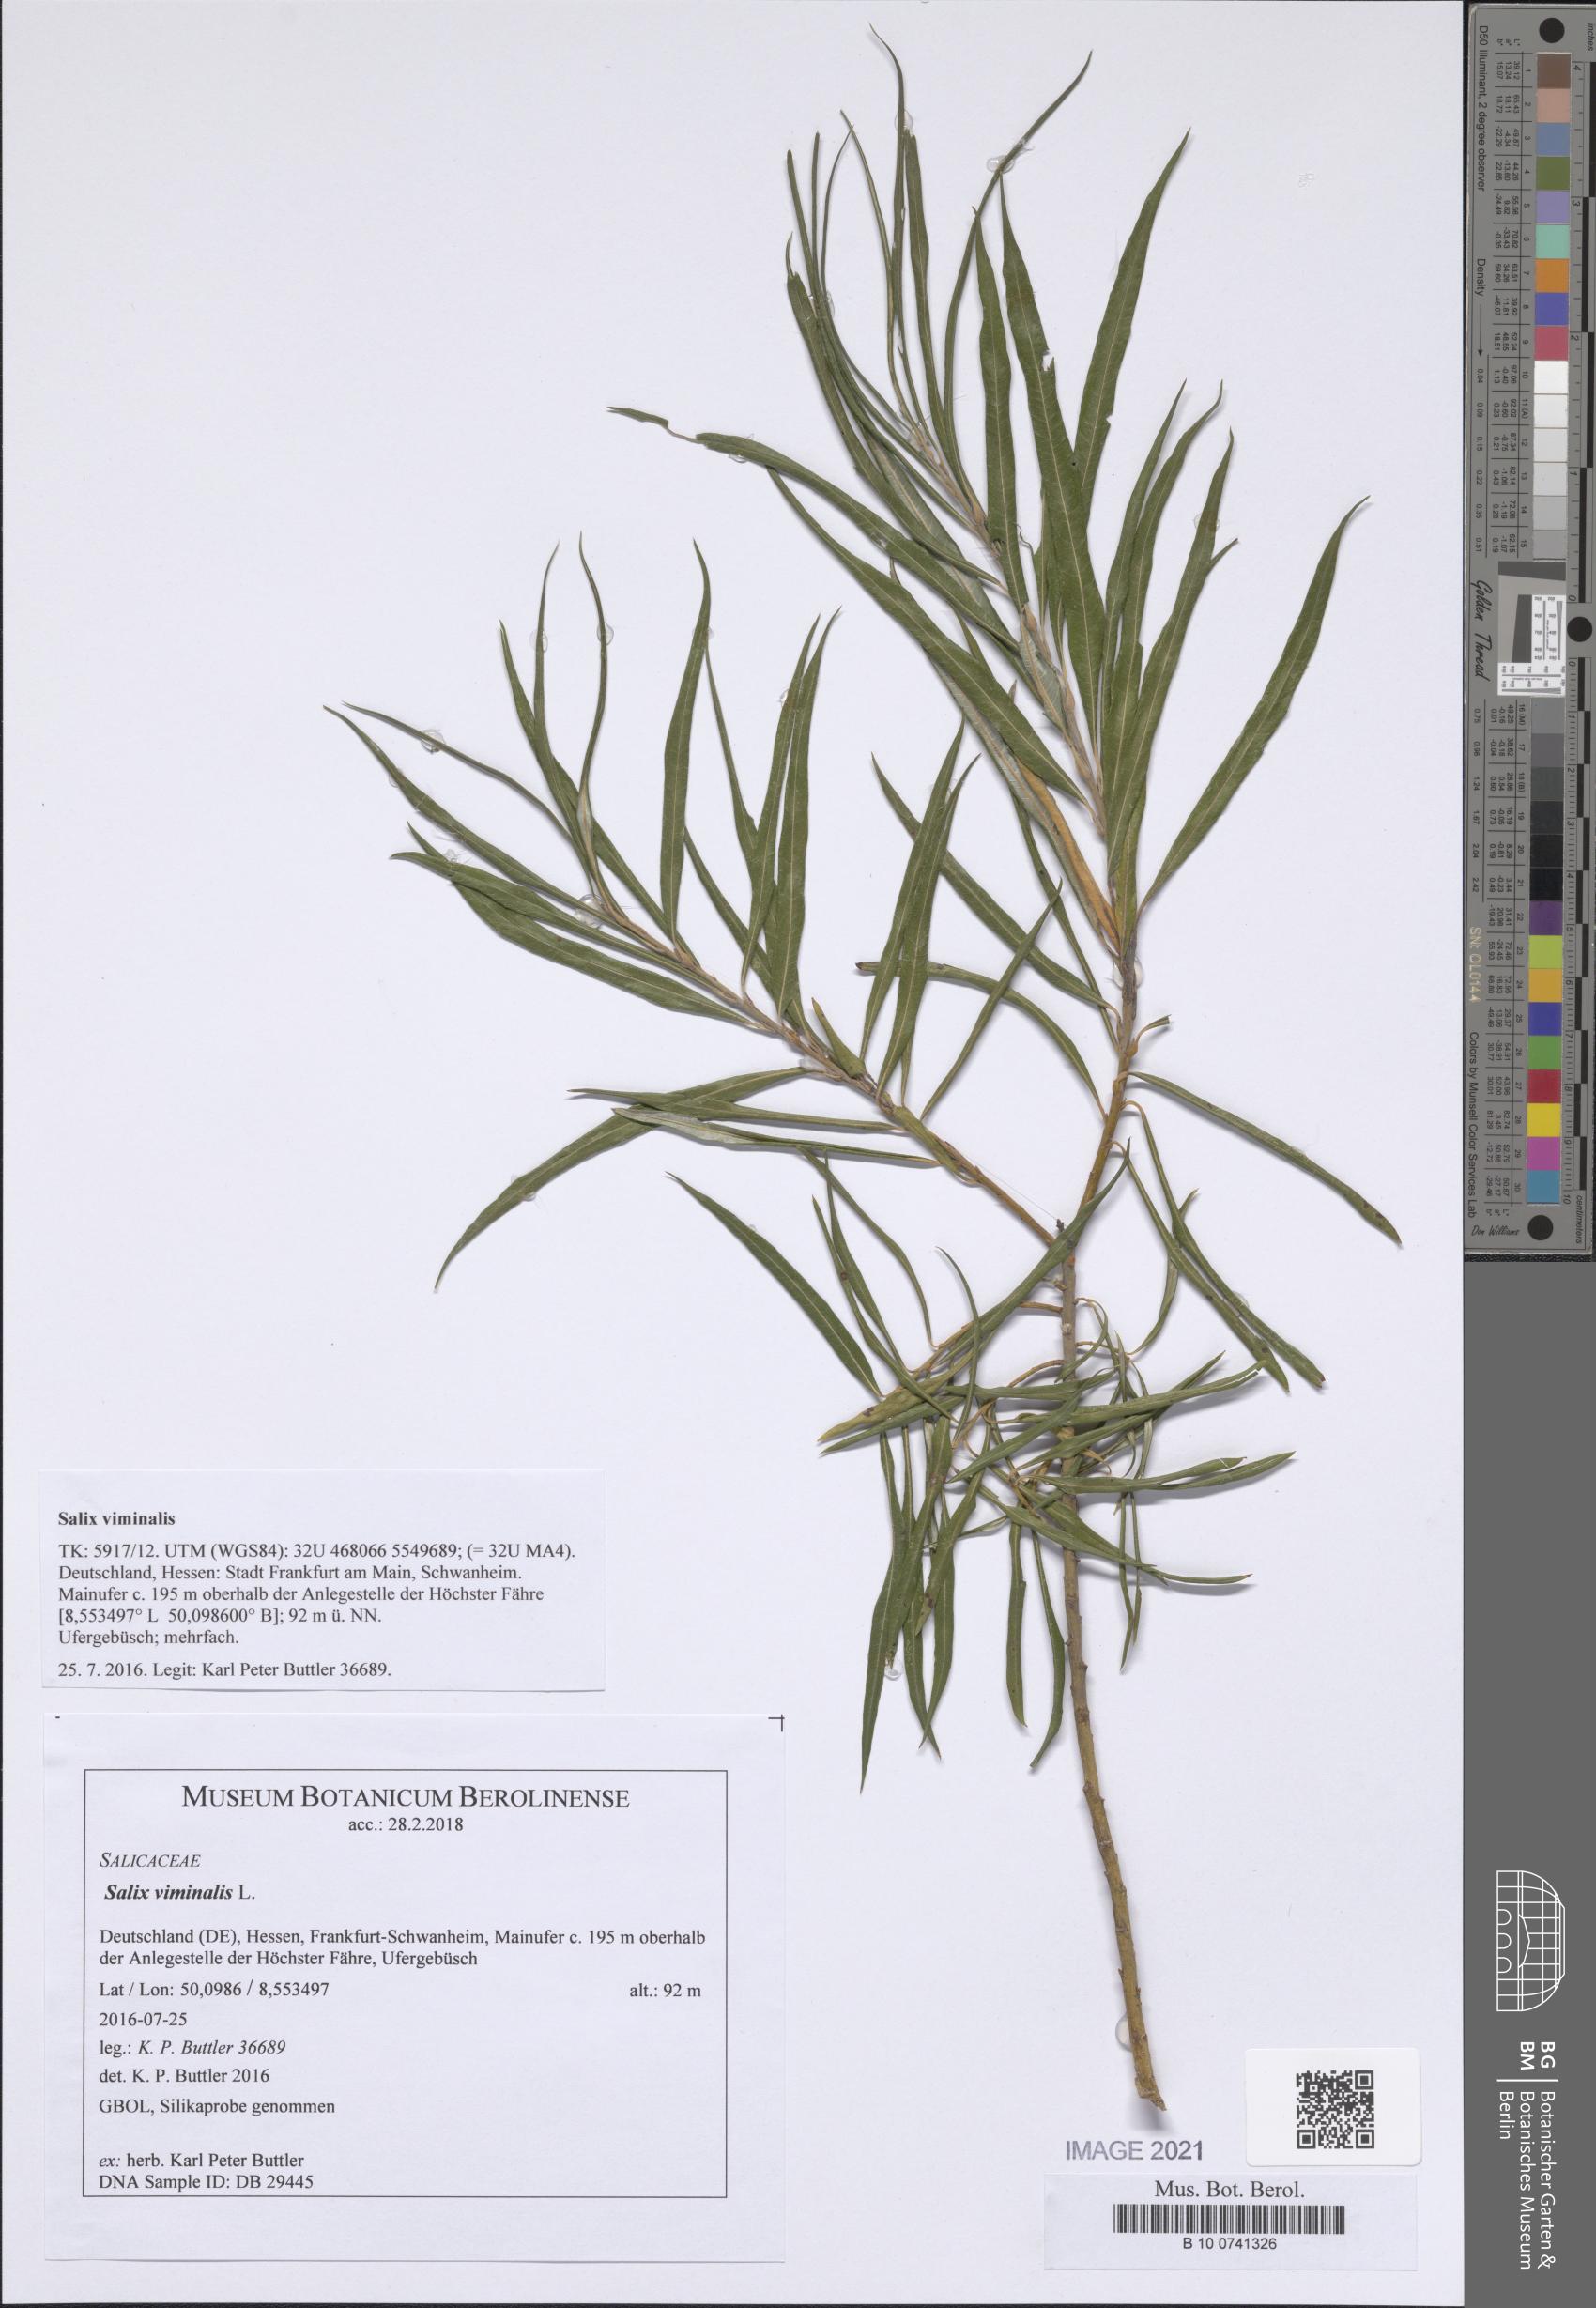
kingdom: Plantae
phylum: Tracheophyta
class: Magnoliopsida
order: Malpighiales
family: Salicaceae
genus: Salix
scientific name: Salix viminalis
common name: Osier
